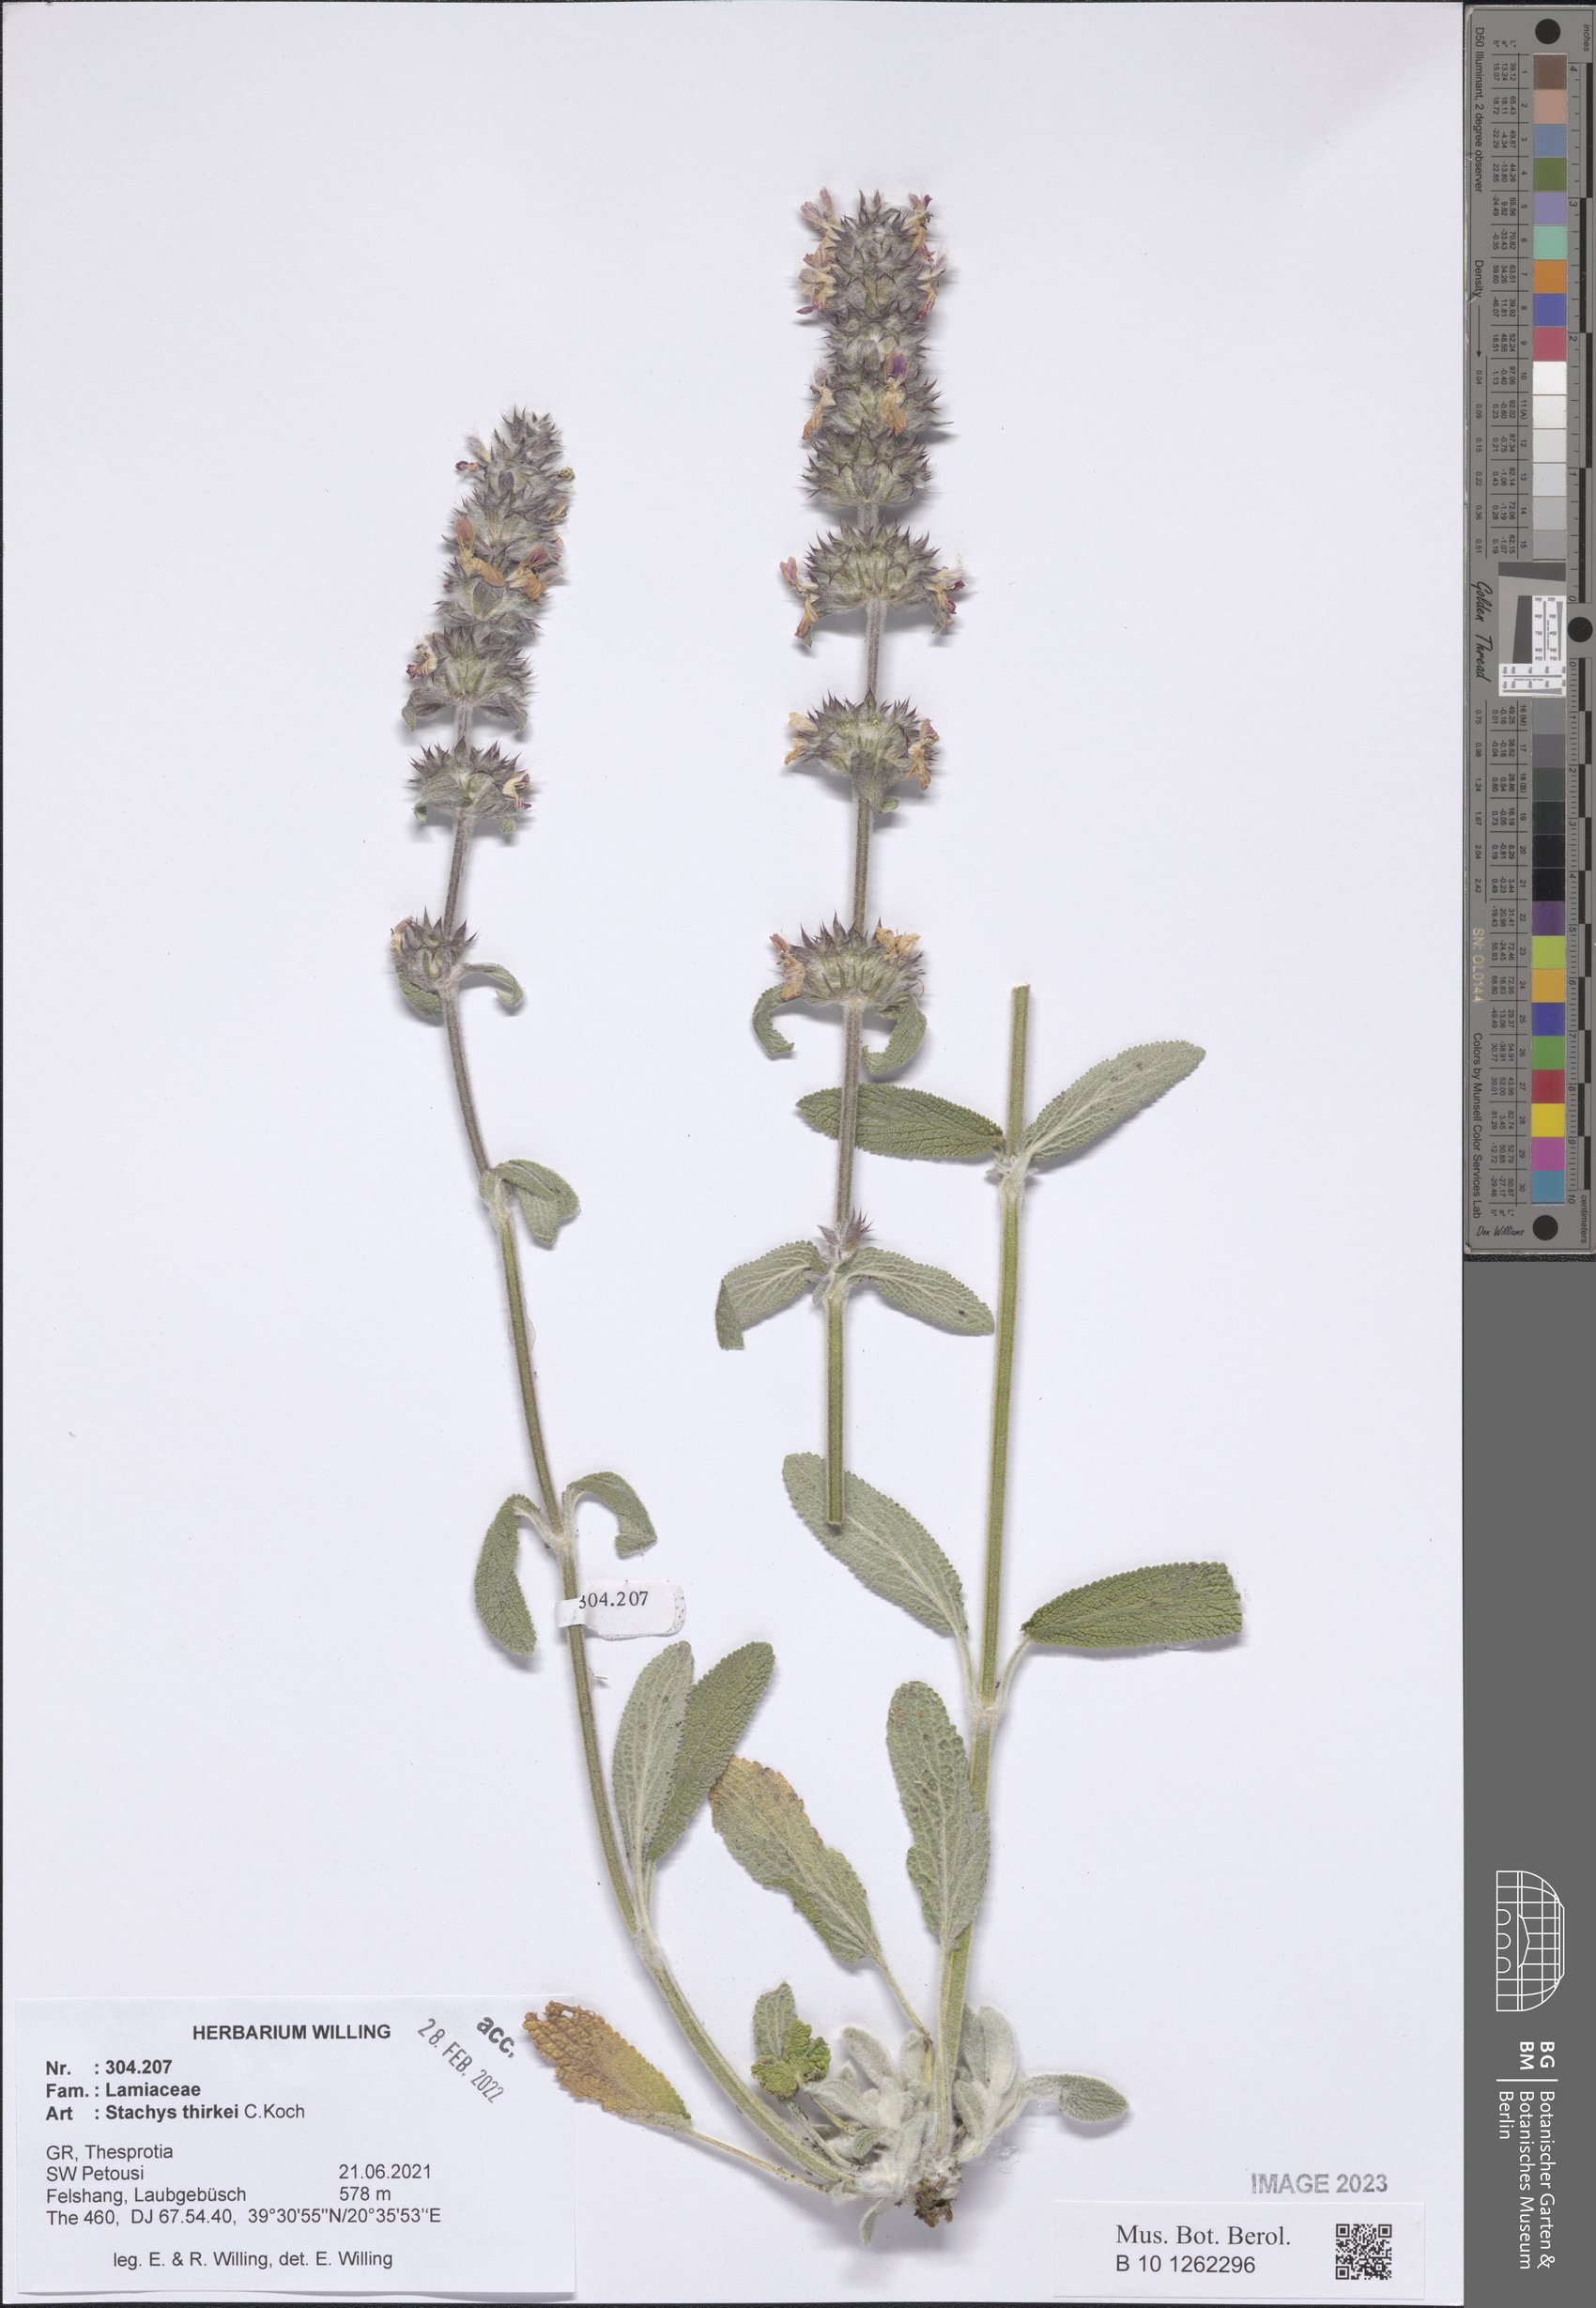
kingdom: Plantae
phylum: Tracheophyta
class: Magnoliopsida
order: Lamiales
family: Lamiaceae
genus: Stachys
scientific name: Stachys thirkei
